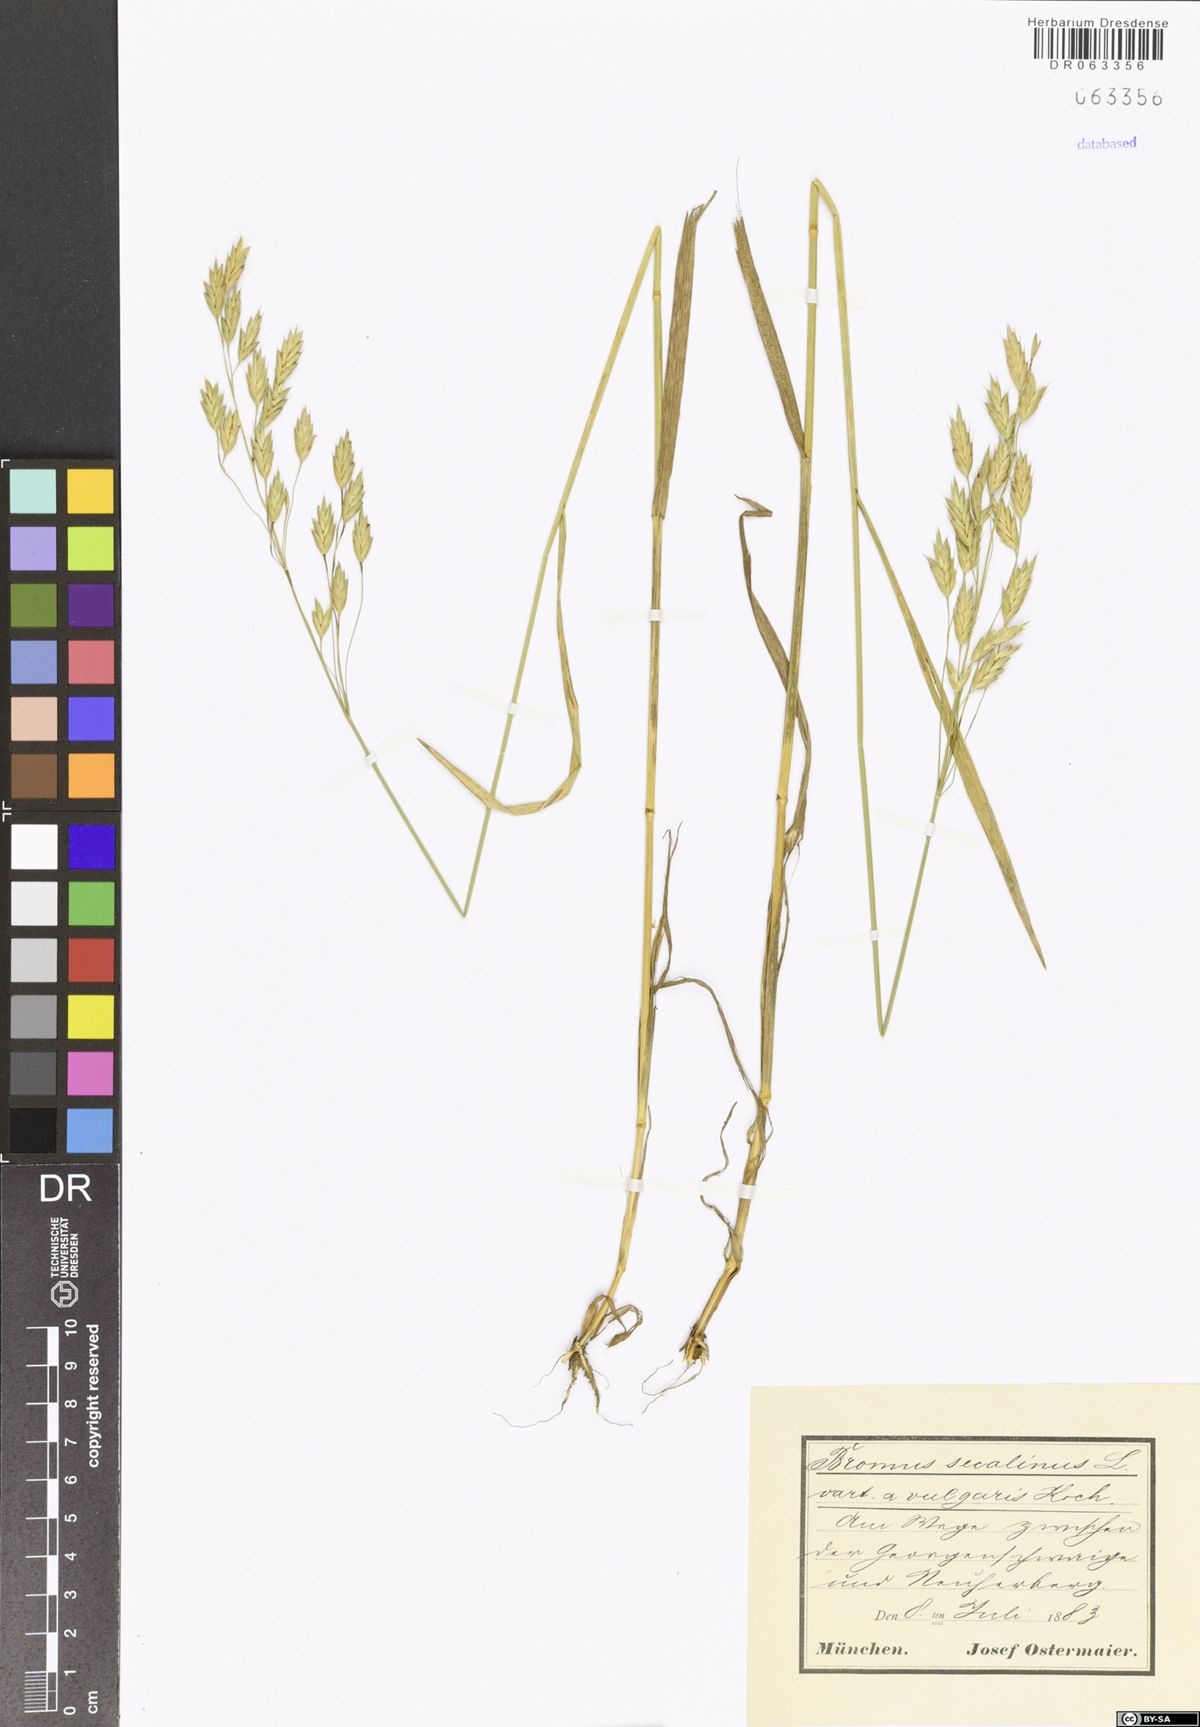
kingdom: Plantae
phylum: Tracheophyta
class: Liliopsida
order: Poales
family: Poaceae
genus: Bromus
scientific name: Bromus secalinus
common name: Rye brome
